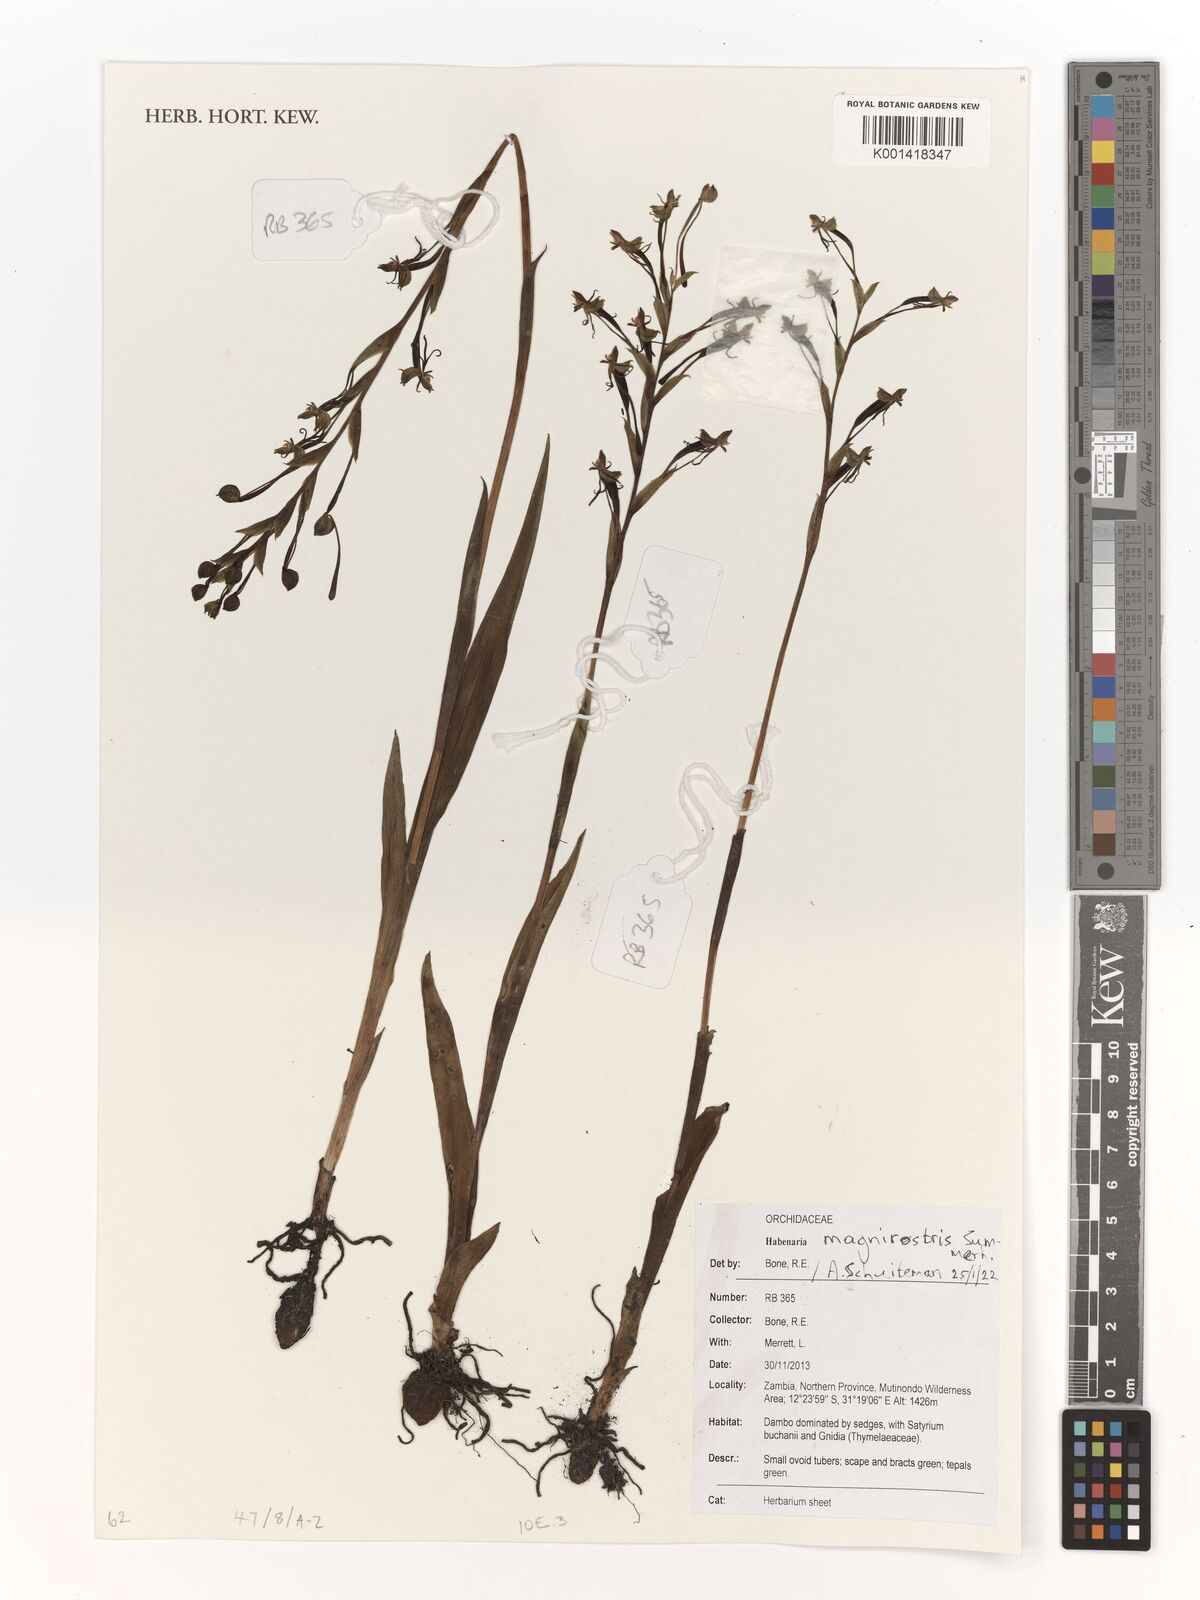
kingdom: Plantae
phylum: Tracheophyta
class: Liliopsida
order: Asparagales
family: Orchidaceae
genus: Habenaria
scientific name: Habenaria magnirostris
